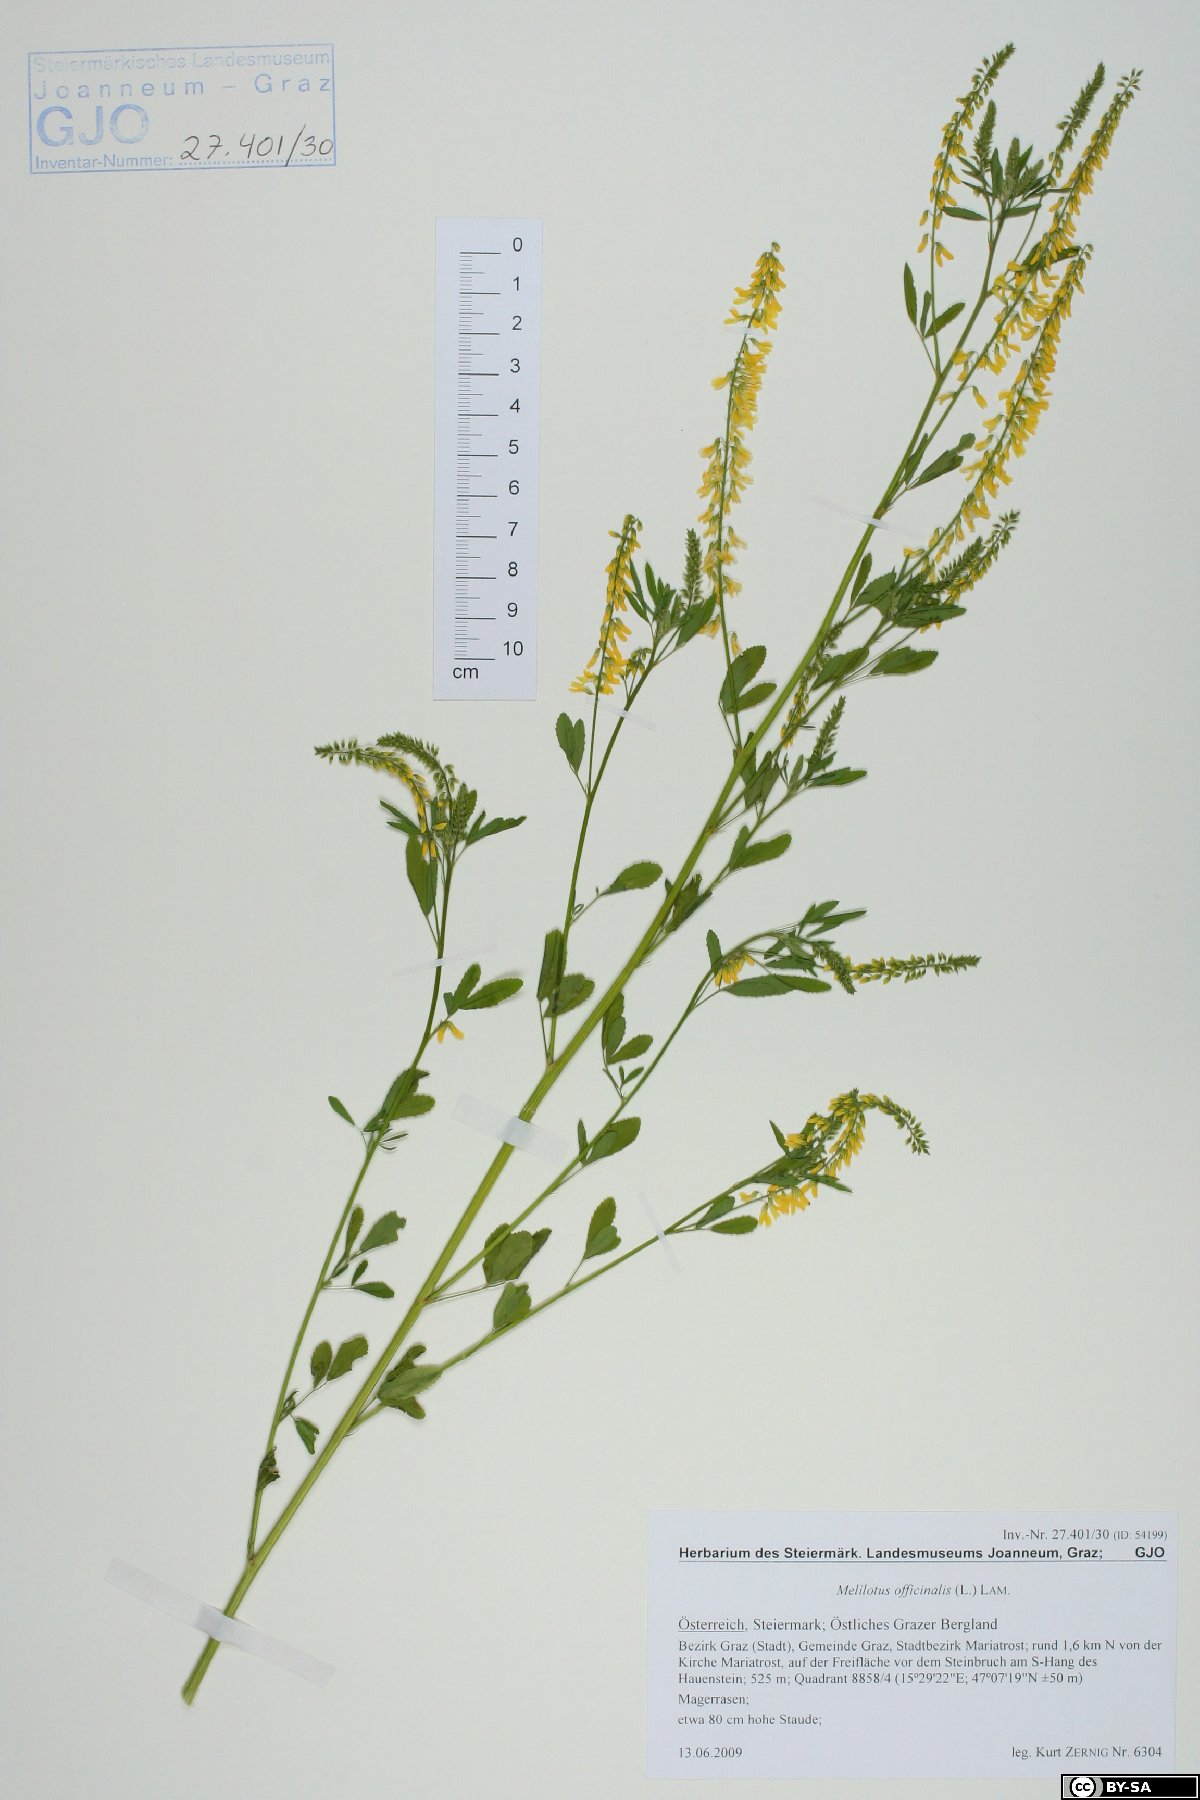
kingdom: Plantae
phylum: Tracheophyta
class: Magnoliopsida
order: Fabales
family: Fabaceae
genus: Melilotus
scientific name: Melilotus officinalis
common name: Sweetclover
